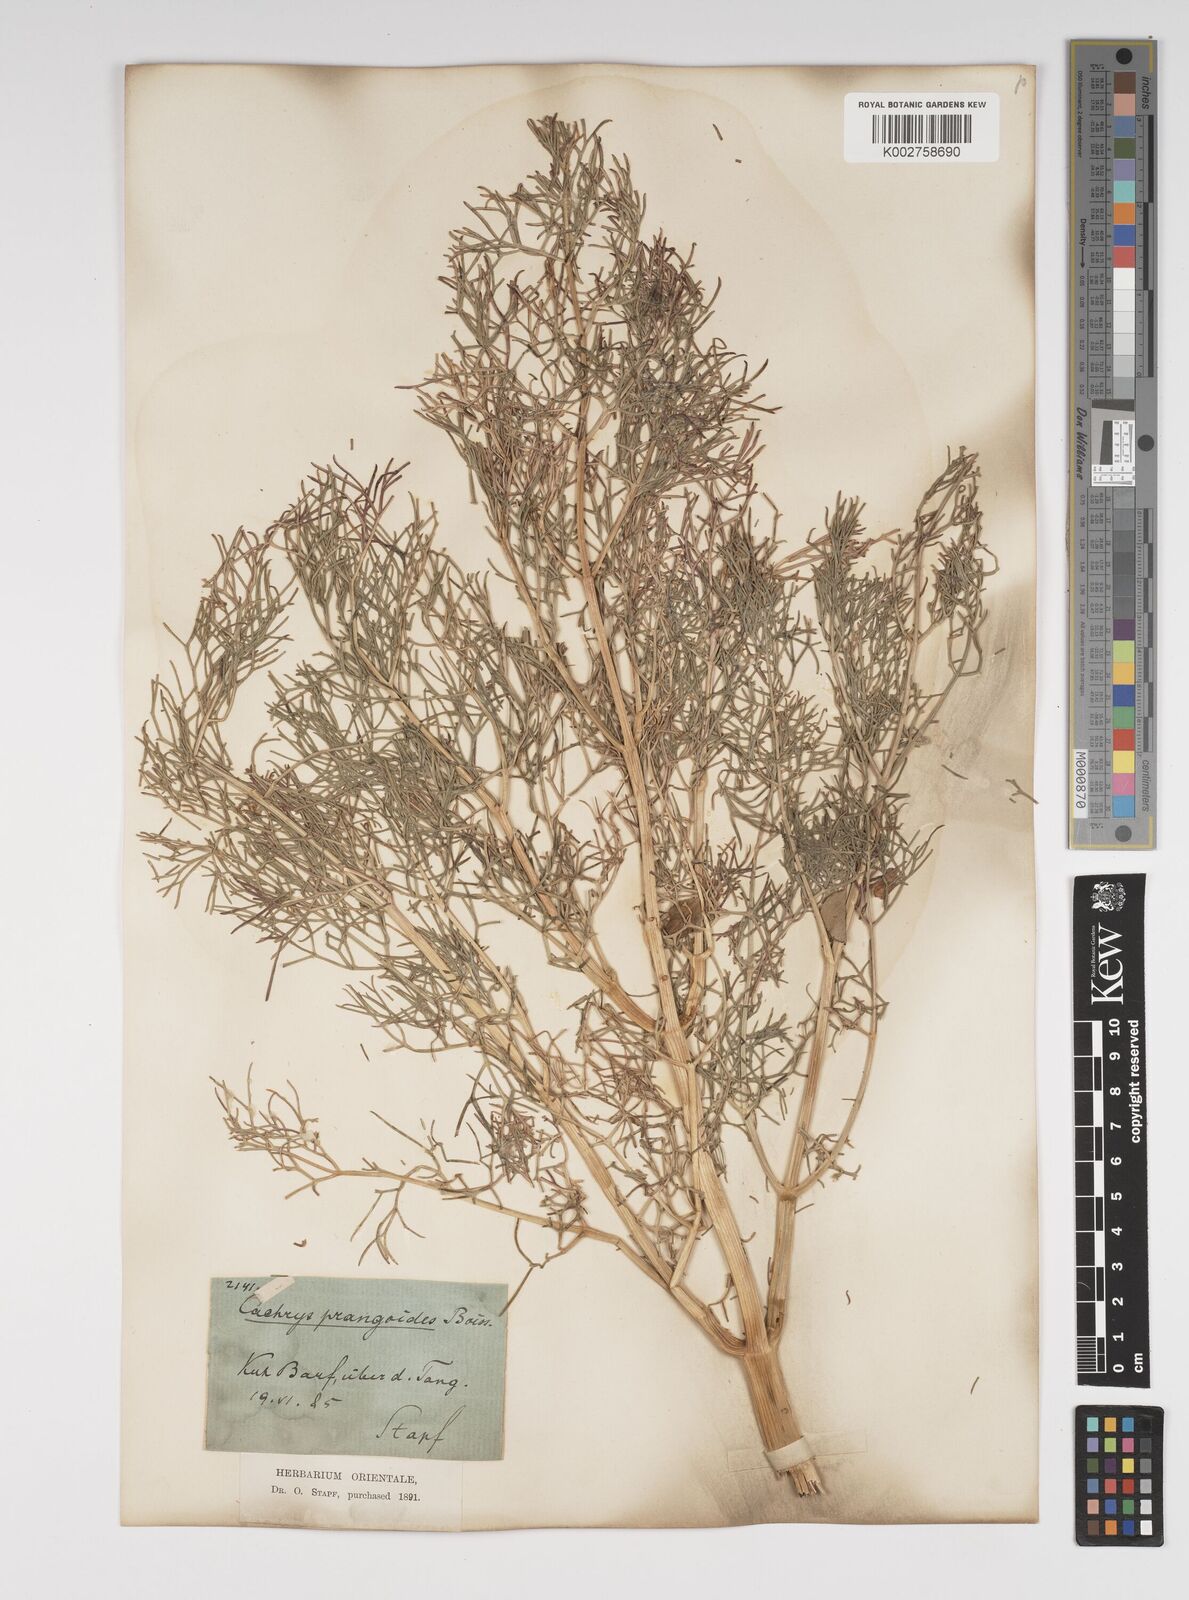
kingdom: Plantae
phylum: Tracheophyta
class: Magnoliopsida
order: Apiales
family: Apiaceae
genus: Prangos
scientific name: Prangos ferulacea
